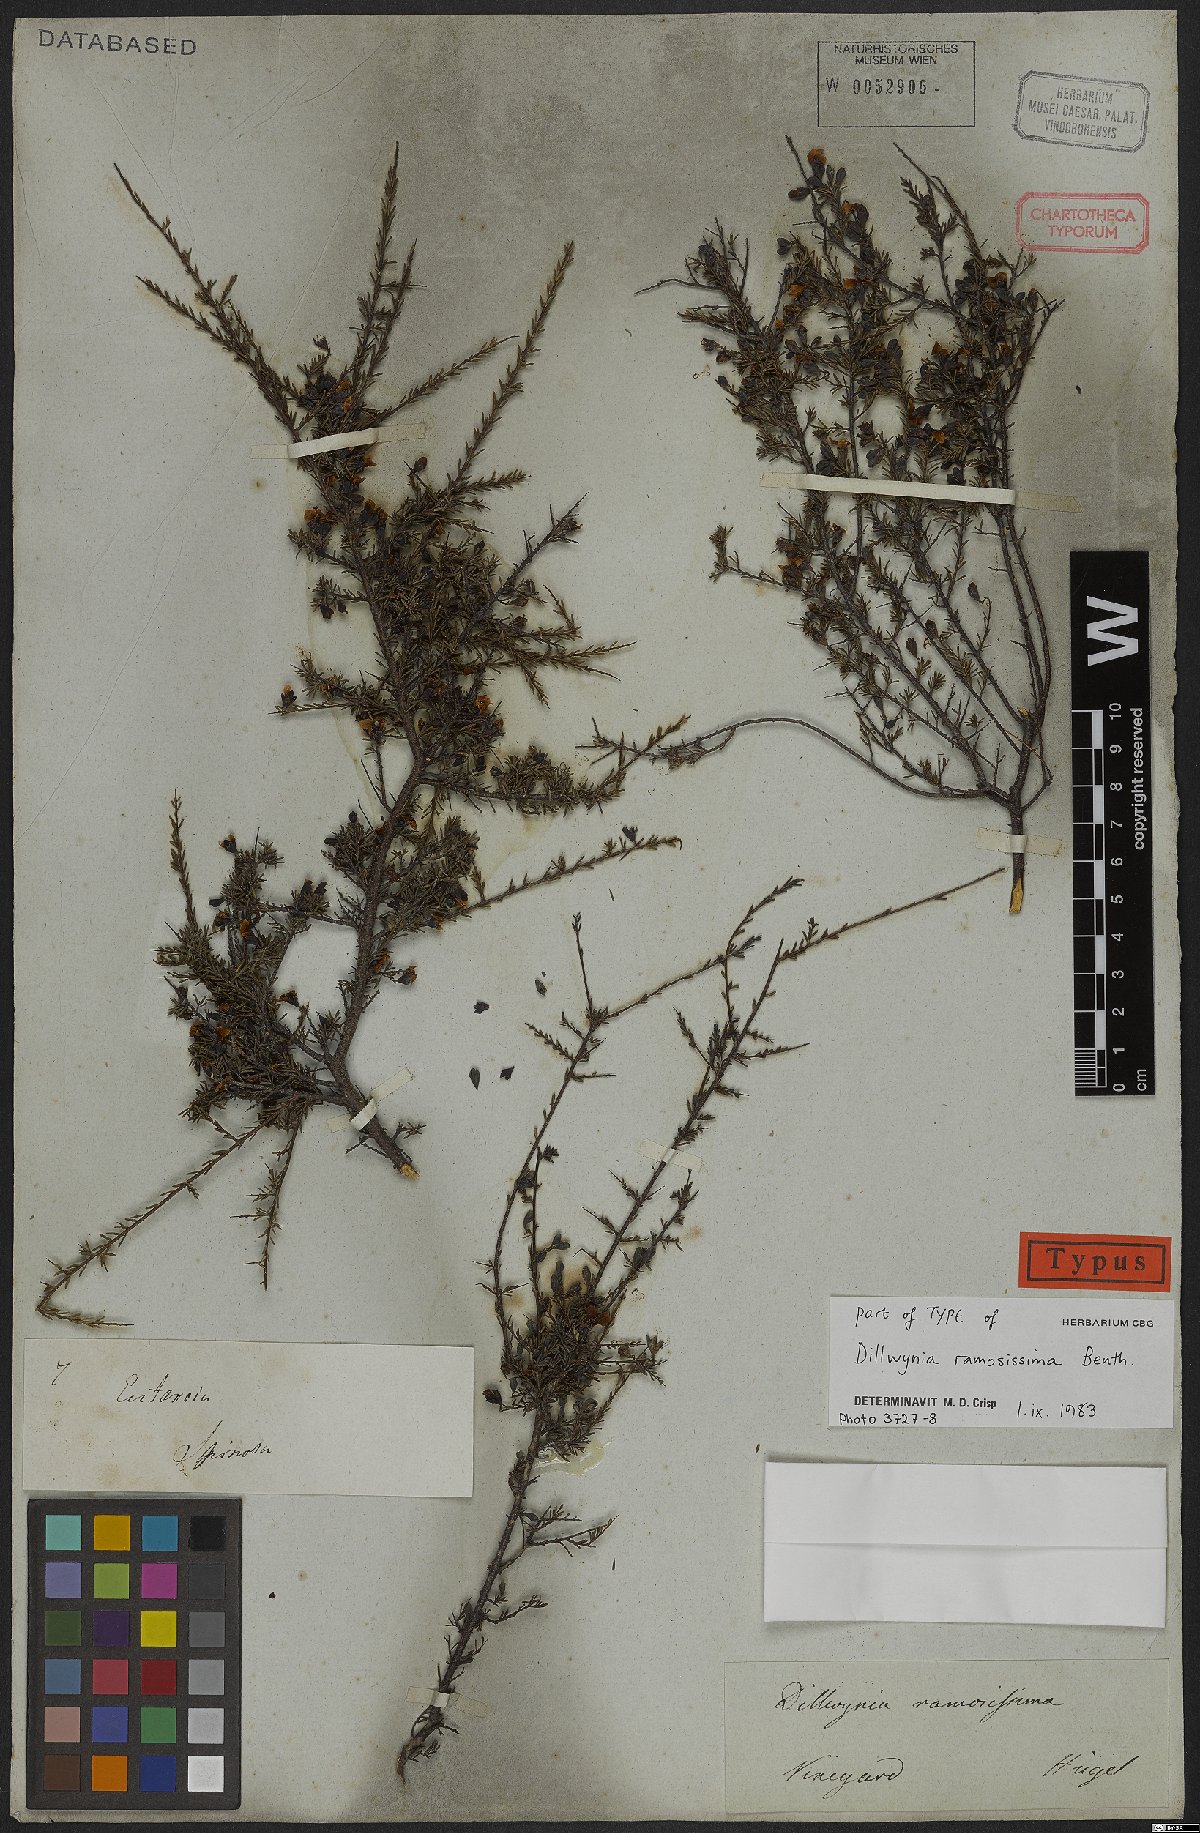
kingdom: Plantae
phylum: Tracheophyta
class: Magnoliopsida
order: Fabales
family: Fabaceae
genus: Dillwynia
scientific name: Dillwynia ramosissima
